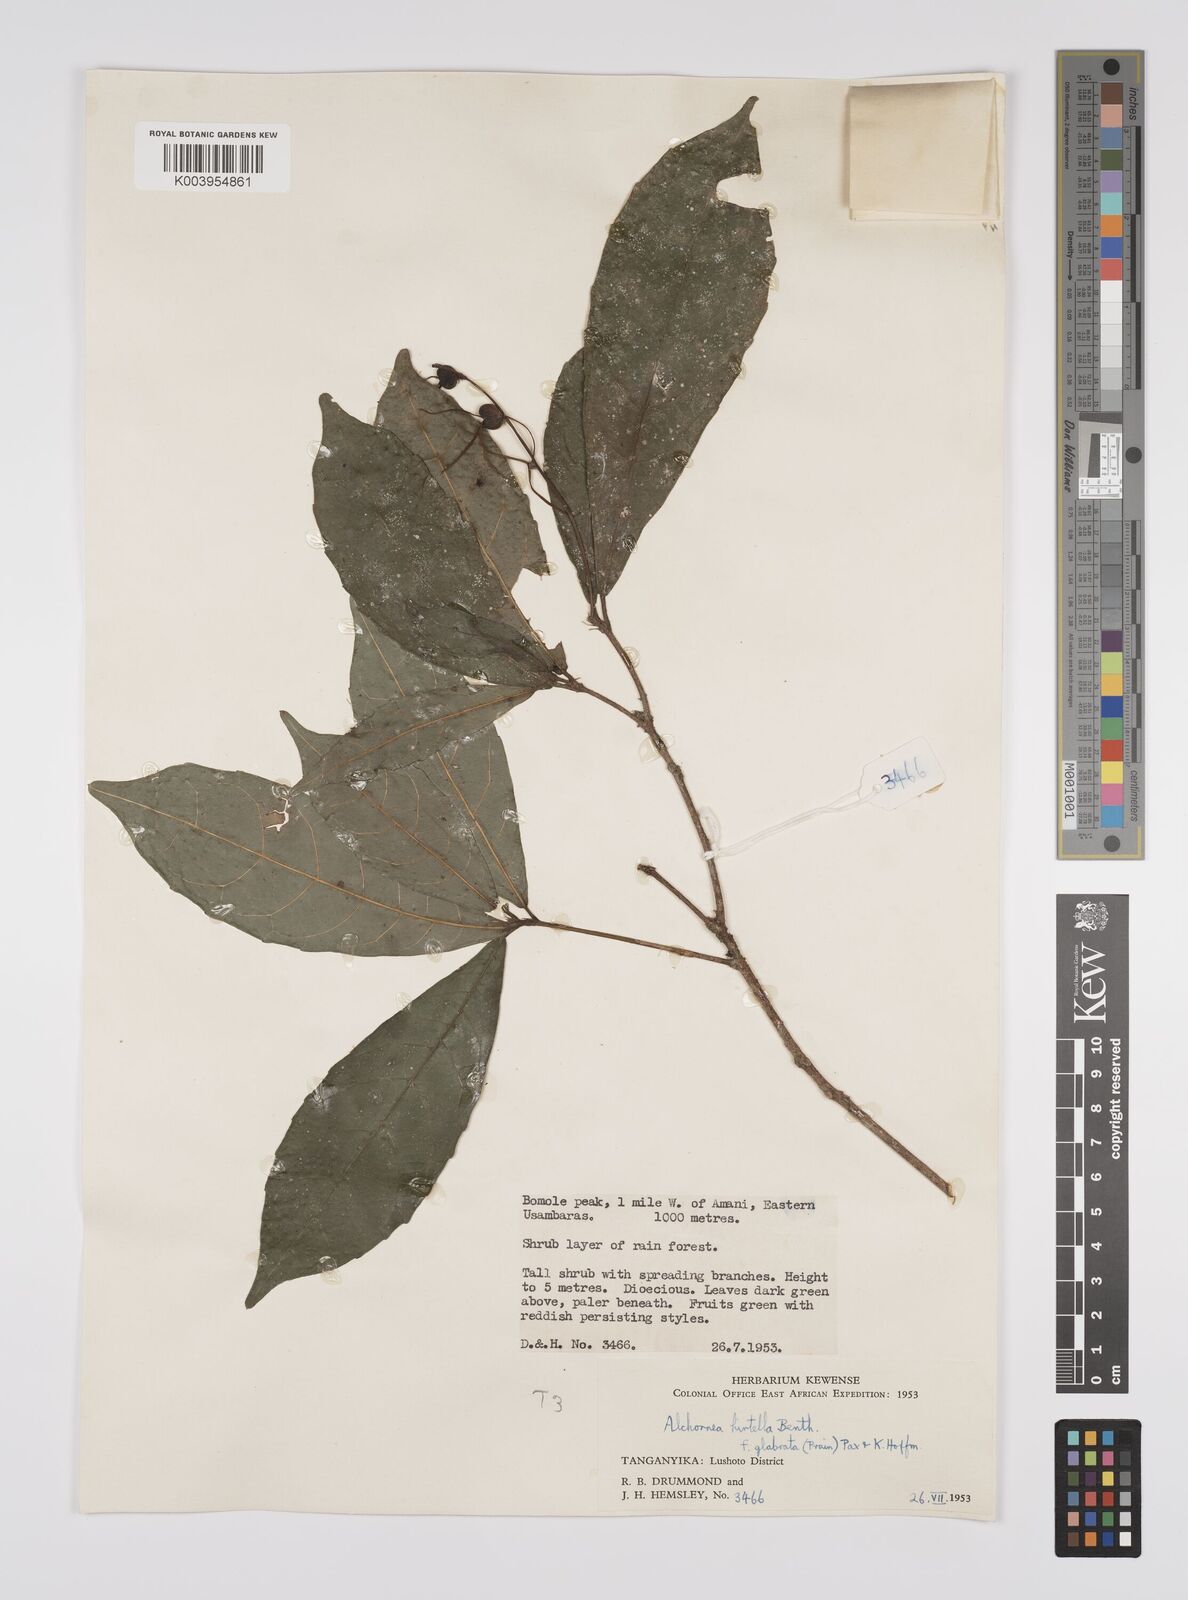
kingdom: Plantae
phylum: Tracheophyta
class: Magnoliopsida
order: Malpighiales
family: Euphorbiaceae
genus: Alchornea
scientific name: Alchornea hirtella
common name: Forest bead-string
